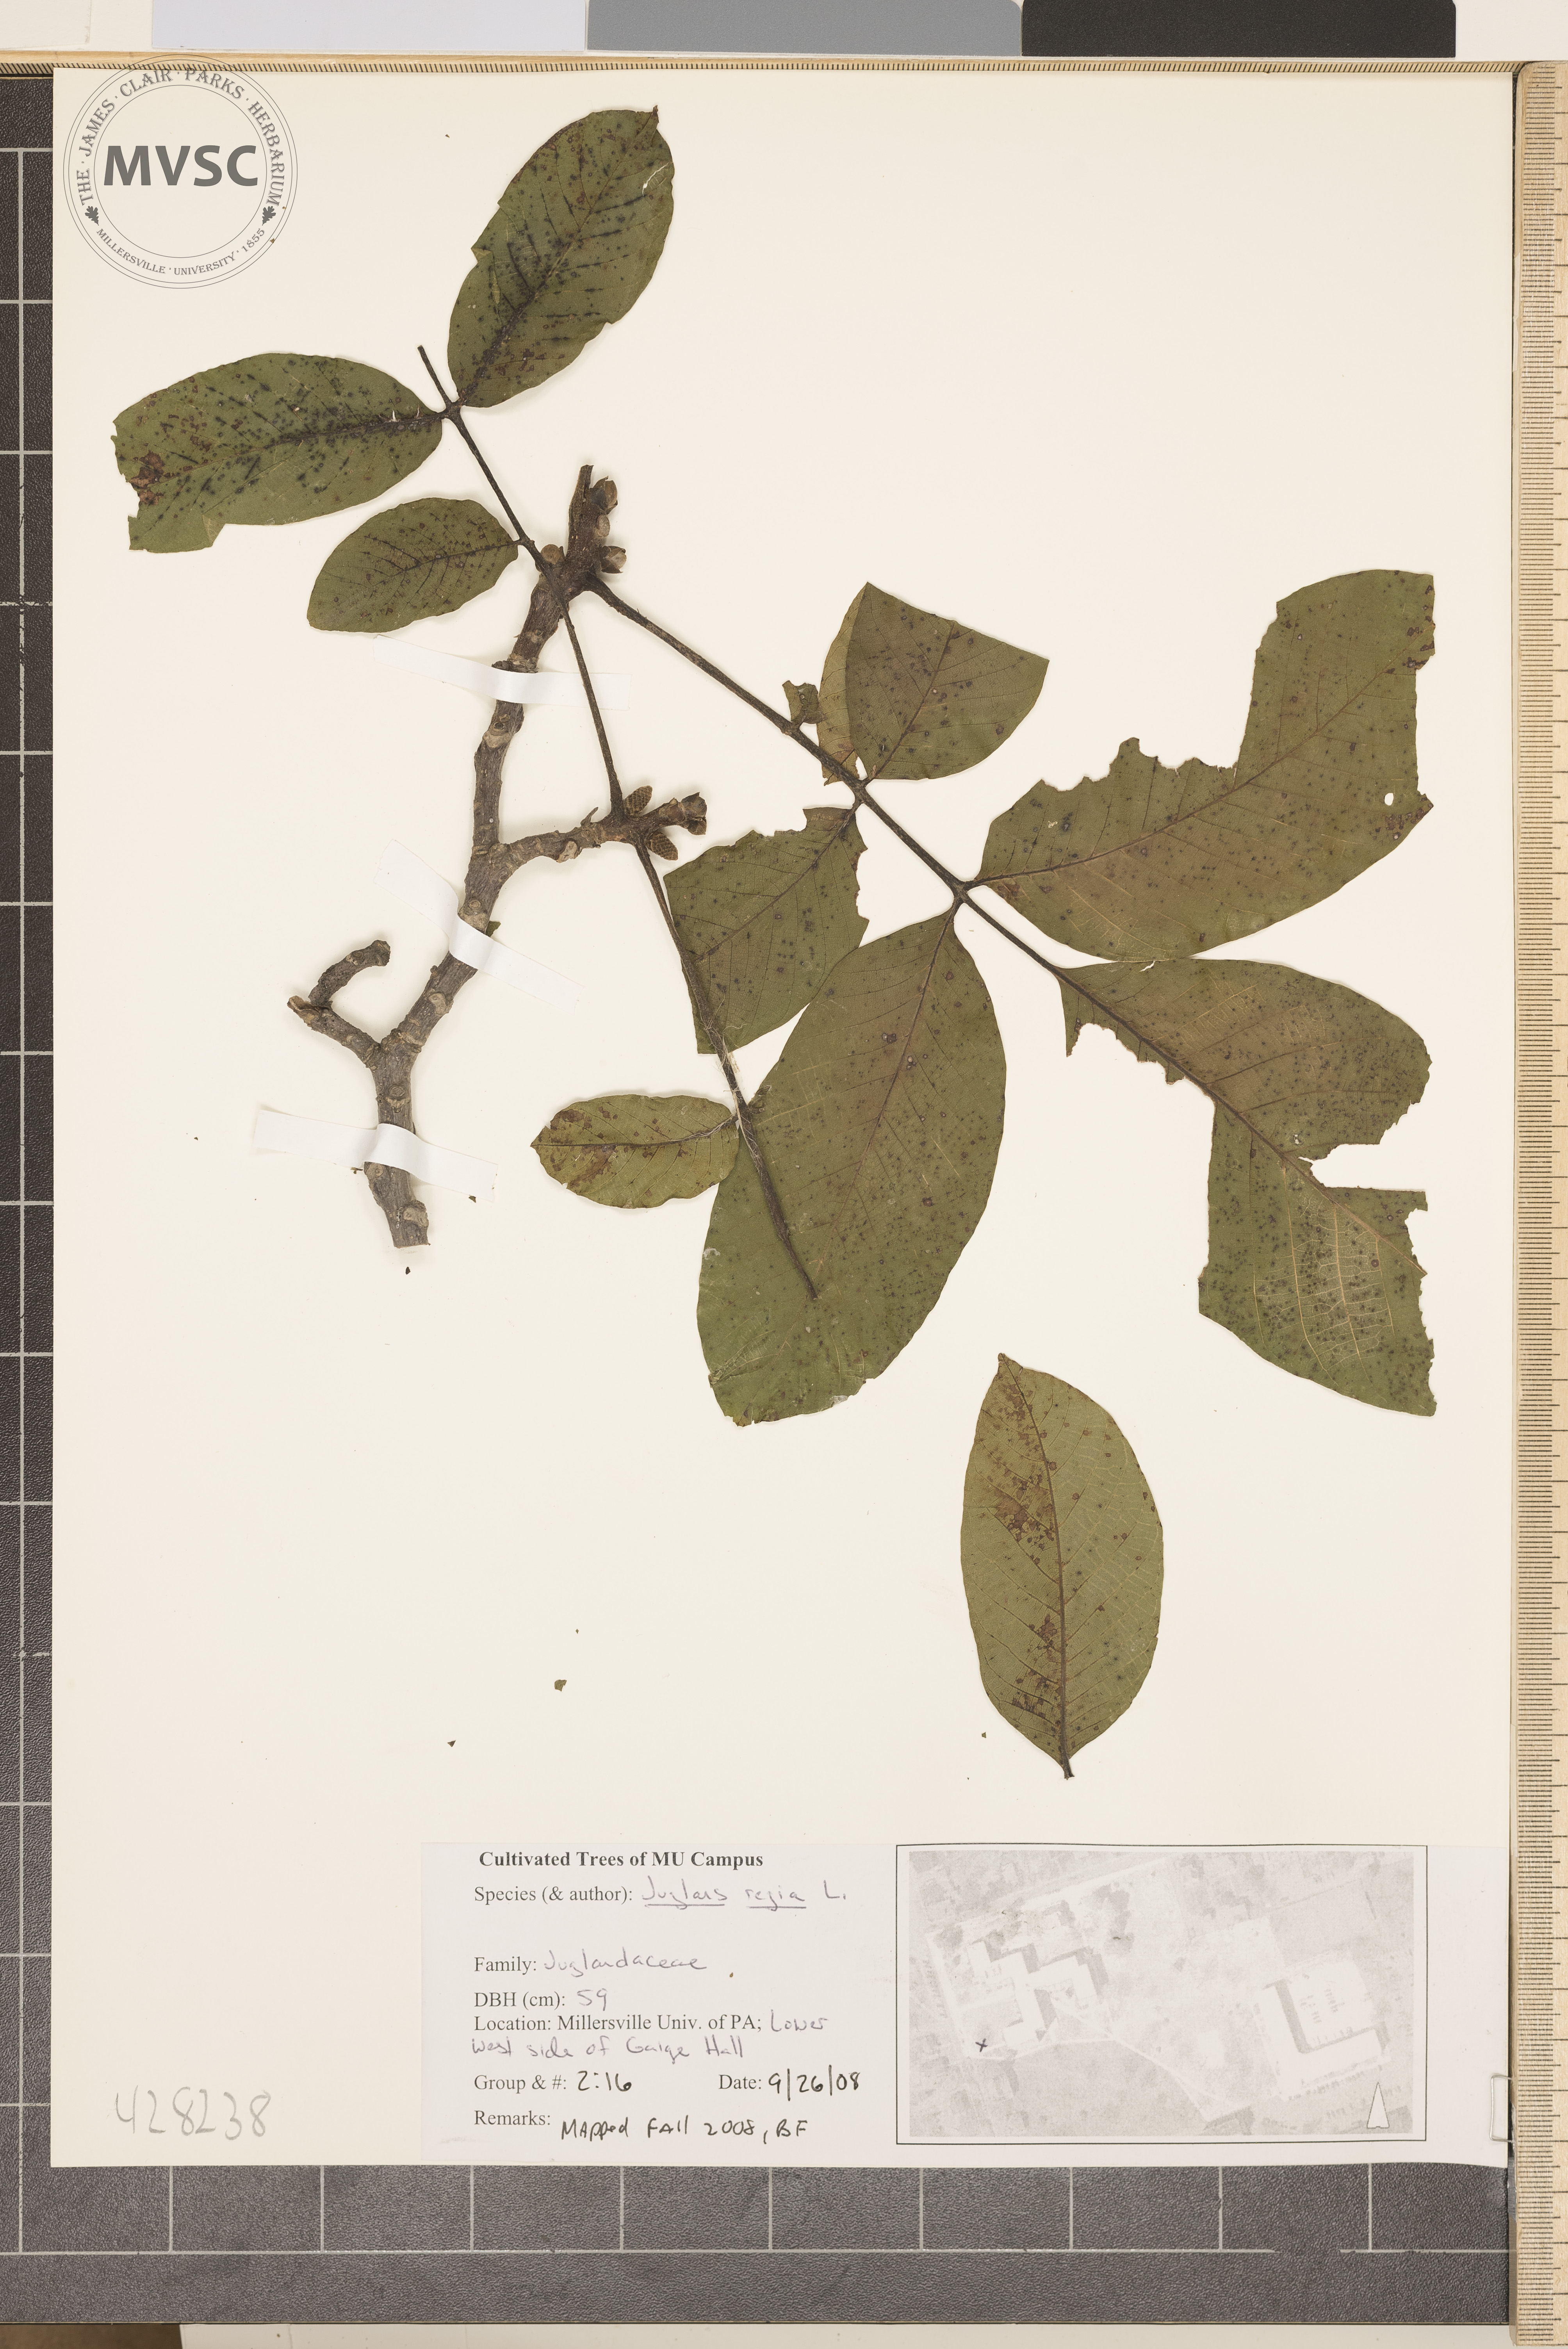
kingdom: Plantae
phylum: Tracheophyta
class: Magnoliopsida
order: Fagales
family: Juglandaceae
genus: Juglans
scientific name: Juglans regia
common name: Persian Walnut
